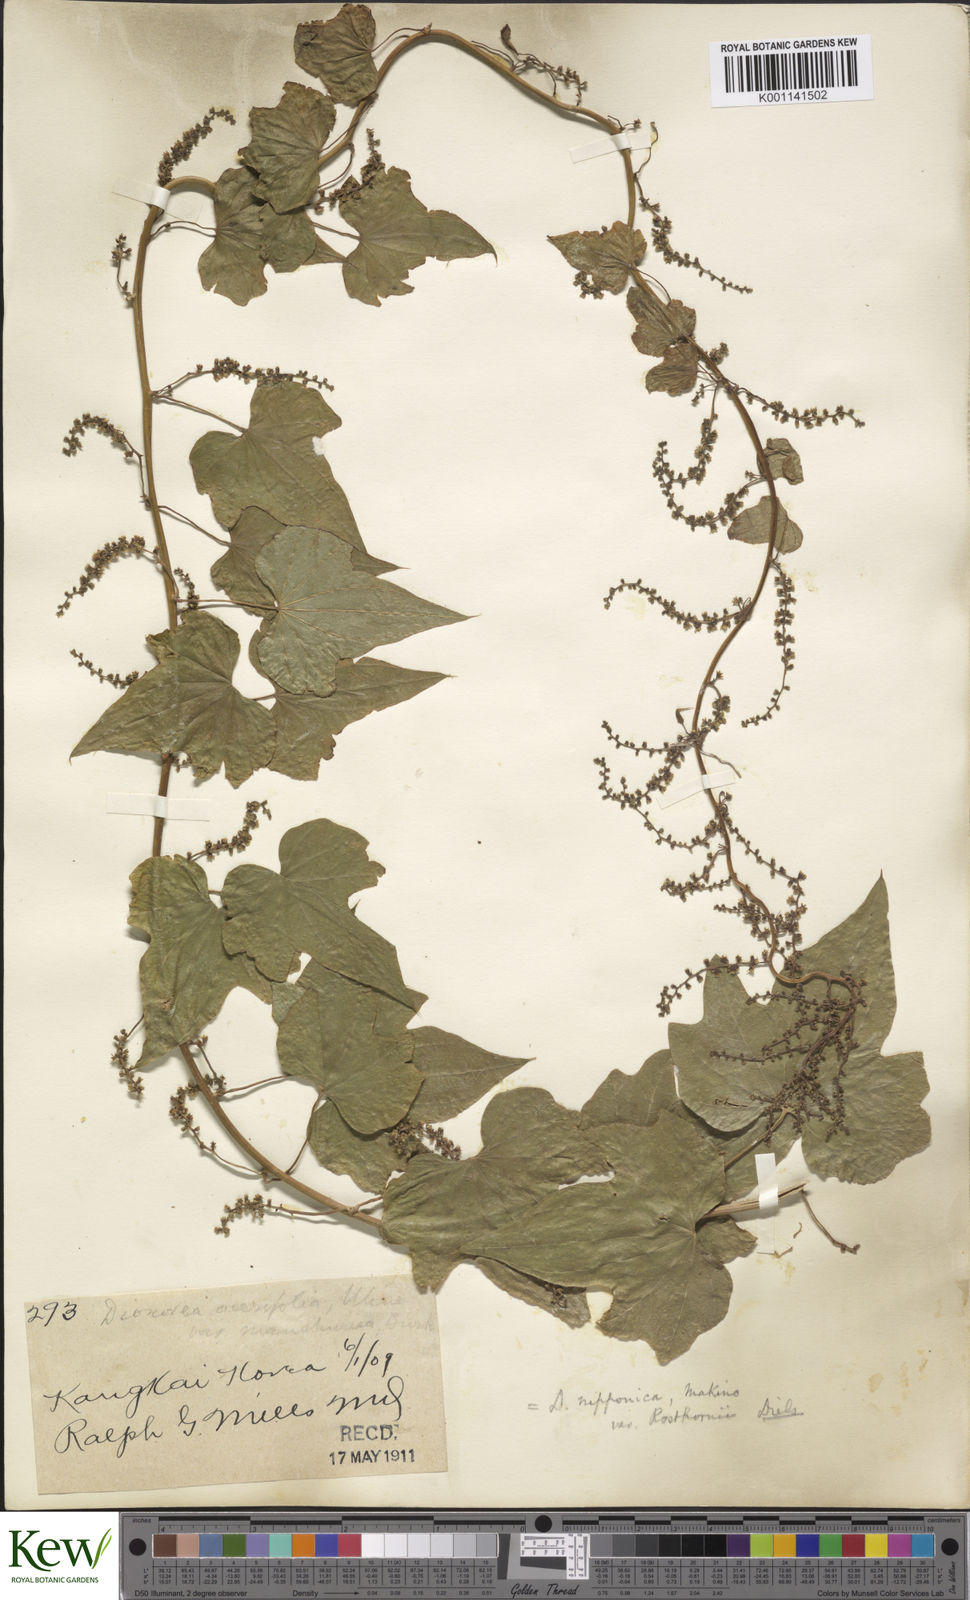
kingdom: Plantae
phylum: Tracheophyta
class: Liliopsida
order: Dioscoreales
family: Dioscoreaceae
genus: Dioscorea
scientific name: Dioscorea nipponica
